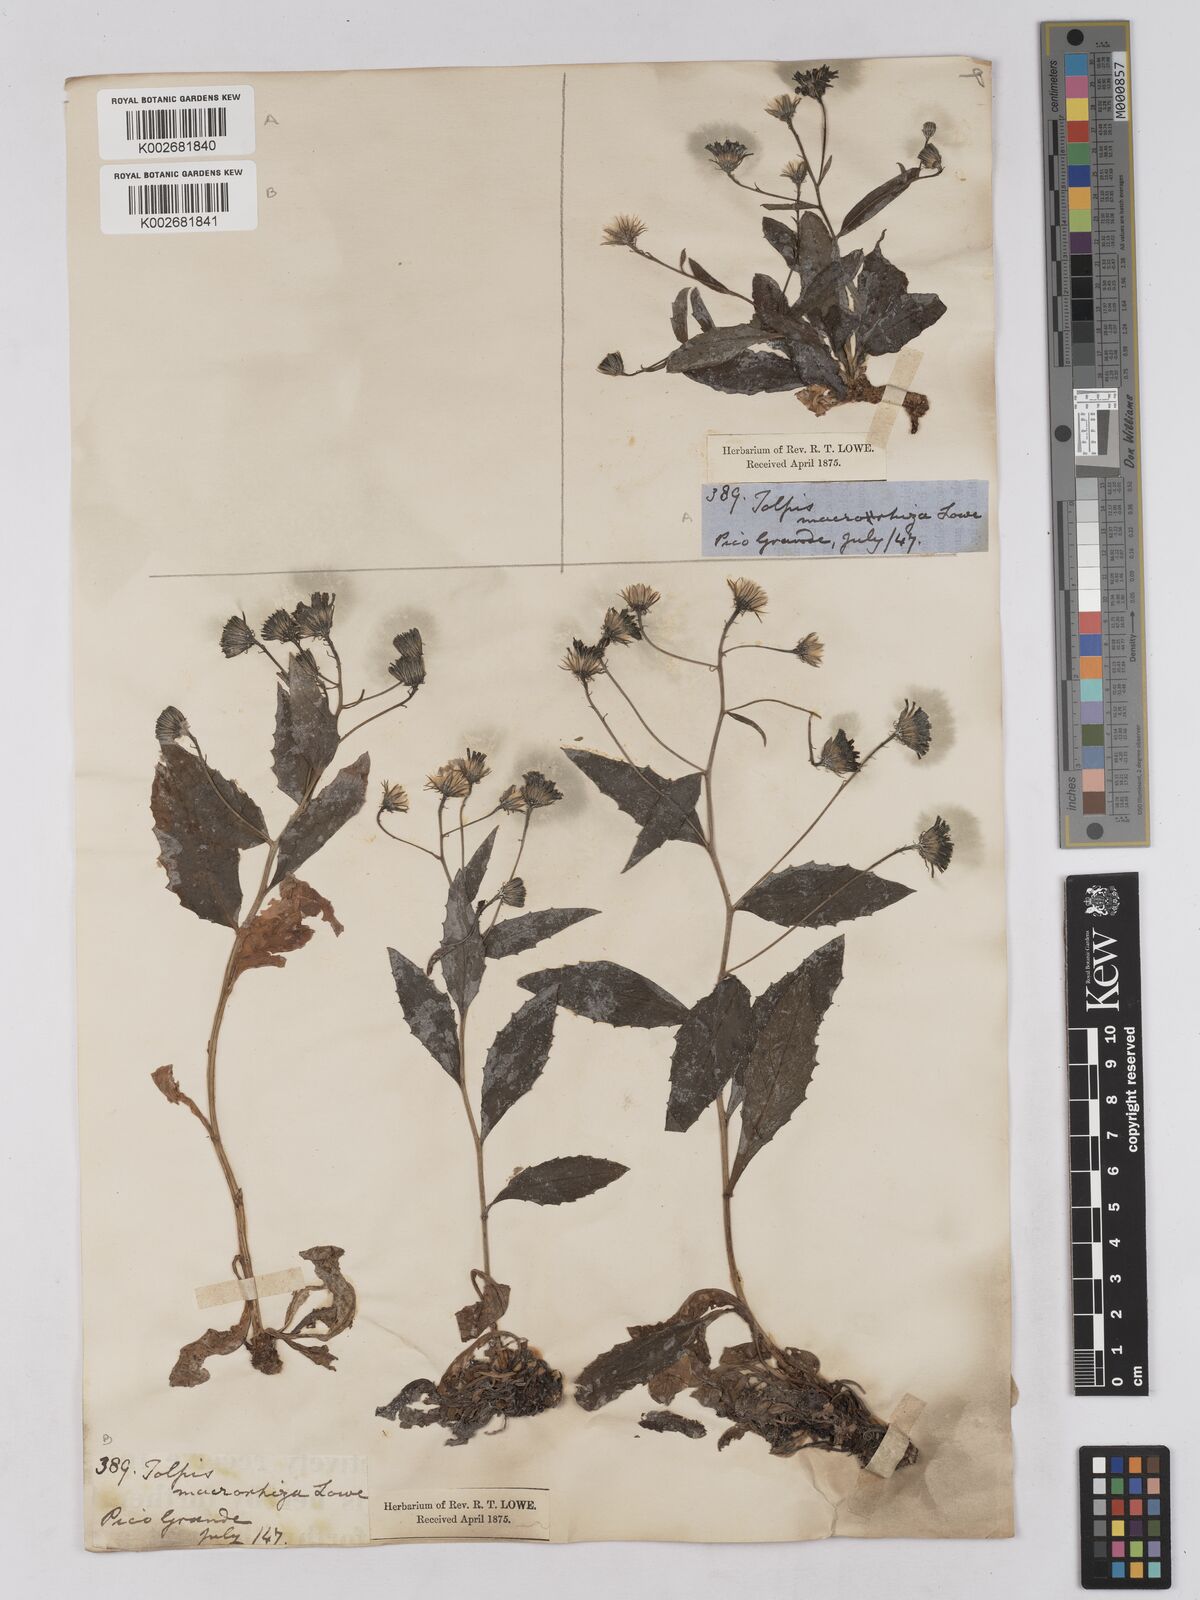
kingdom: Plantae
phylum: Tracheophyta
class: Magnoliopsida
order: Asterales
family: Asteraceae
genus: Tolpis
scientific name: Tolpis macrorhiza
